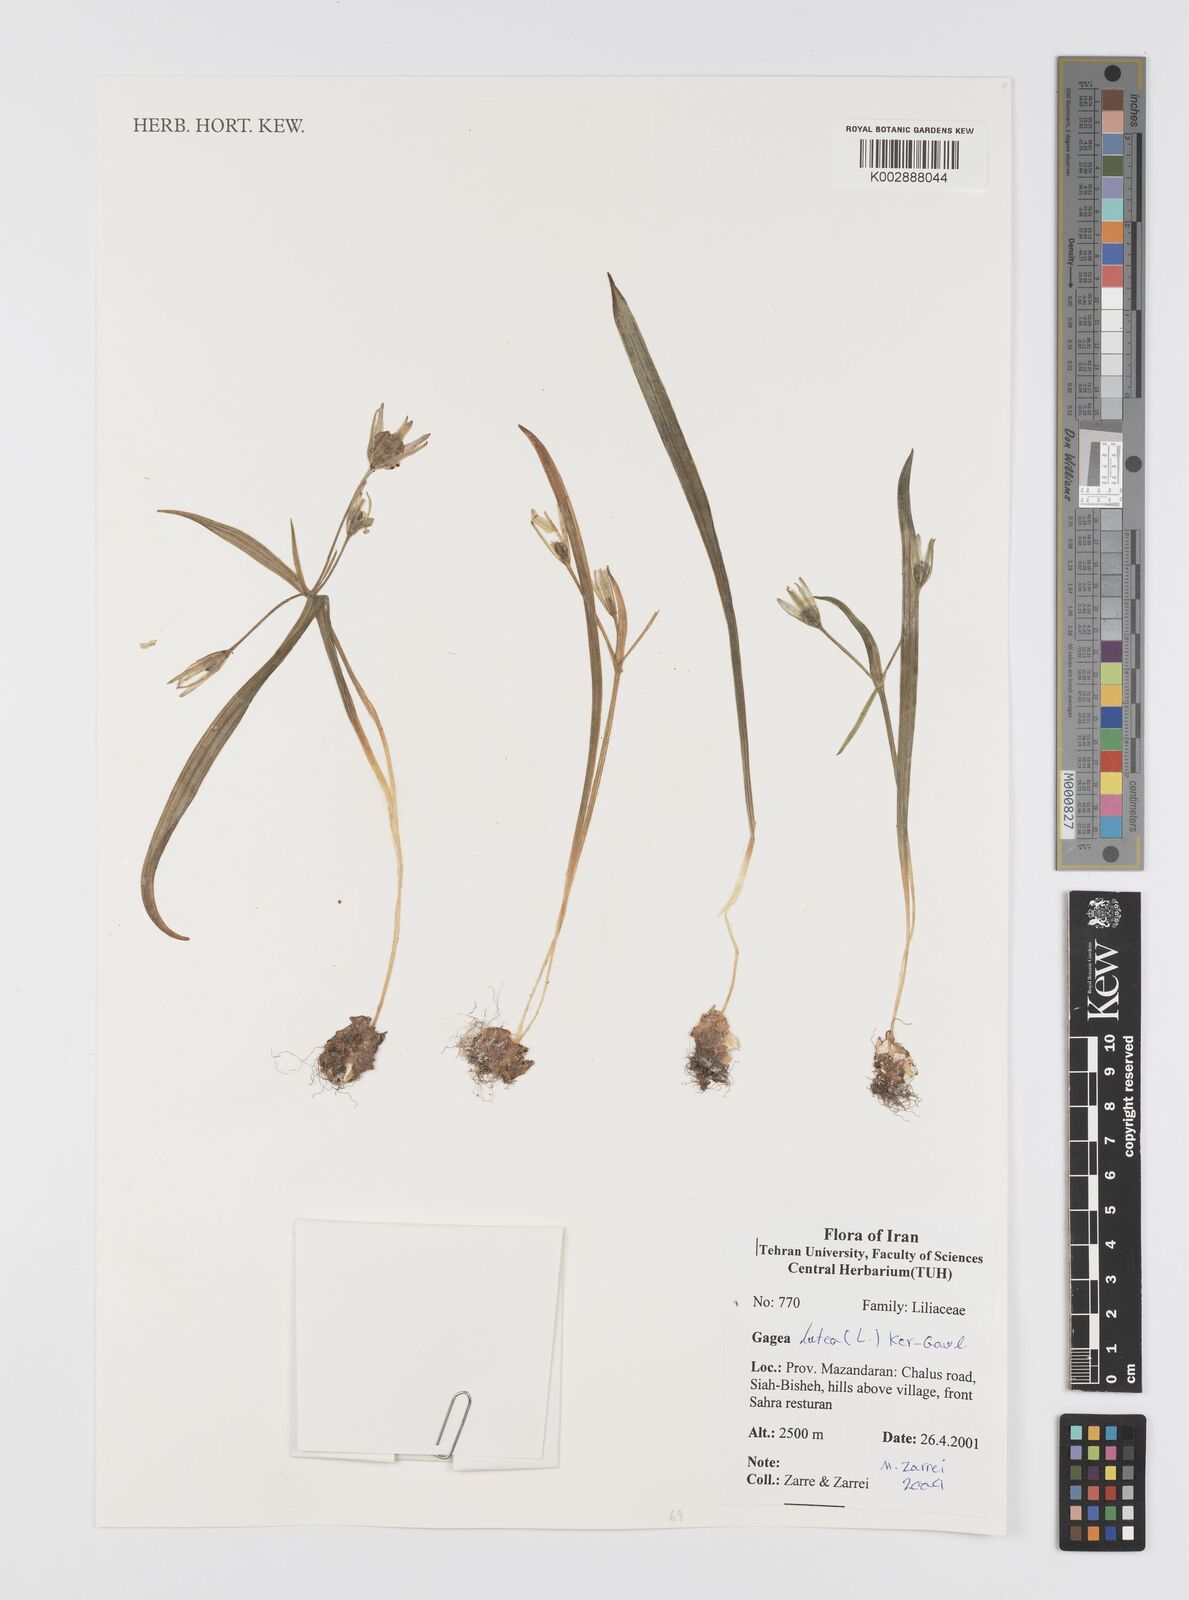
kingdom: Plantae
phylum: Tracheophyta
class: Liliopsida
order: Liliales
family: Liliaceae
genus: Gagea
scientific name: Gagea lutea
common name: Yellow star-of-bethlehem
